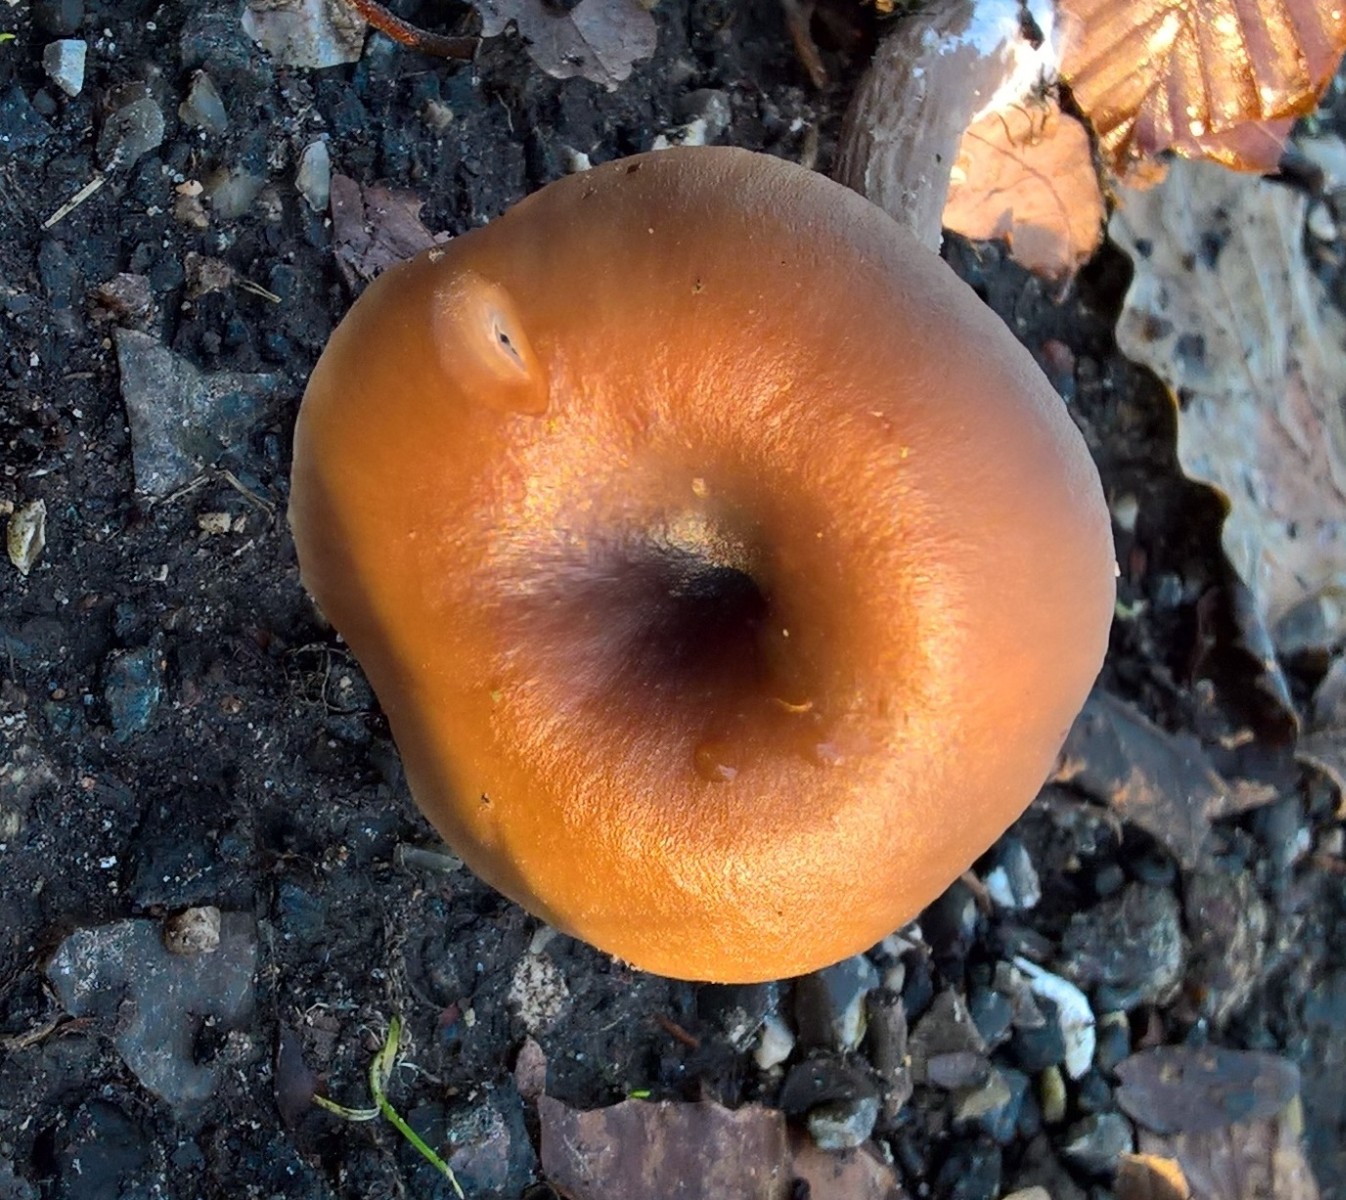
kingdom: Fungi
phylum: Basidiomycota
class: Agaricomycetes
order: Agaricales
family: Pseudoclitocybaceae
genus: Pseudoclitocybe
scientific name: Pseudoclitocybe cyathiformis
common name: almindelig bægertragthat
